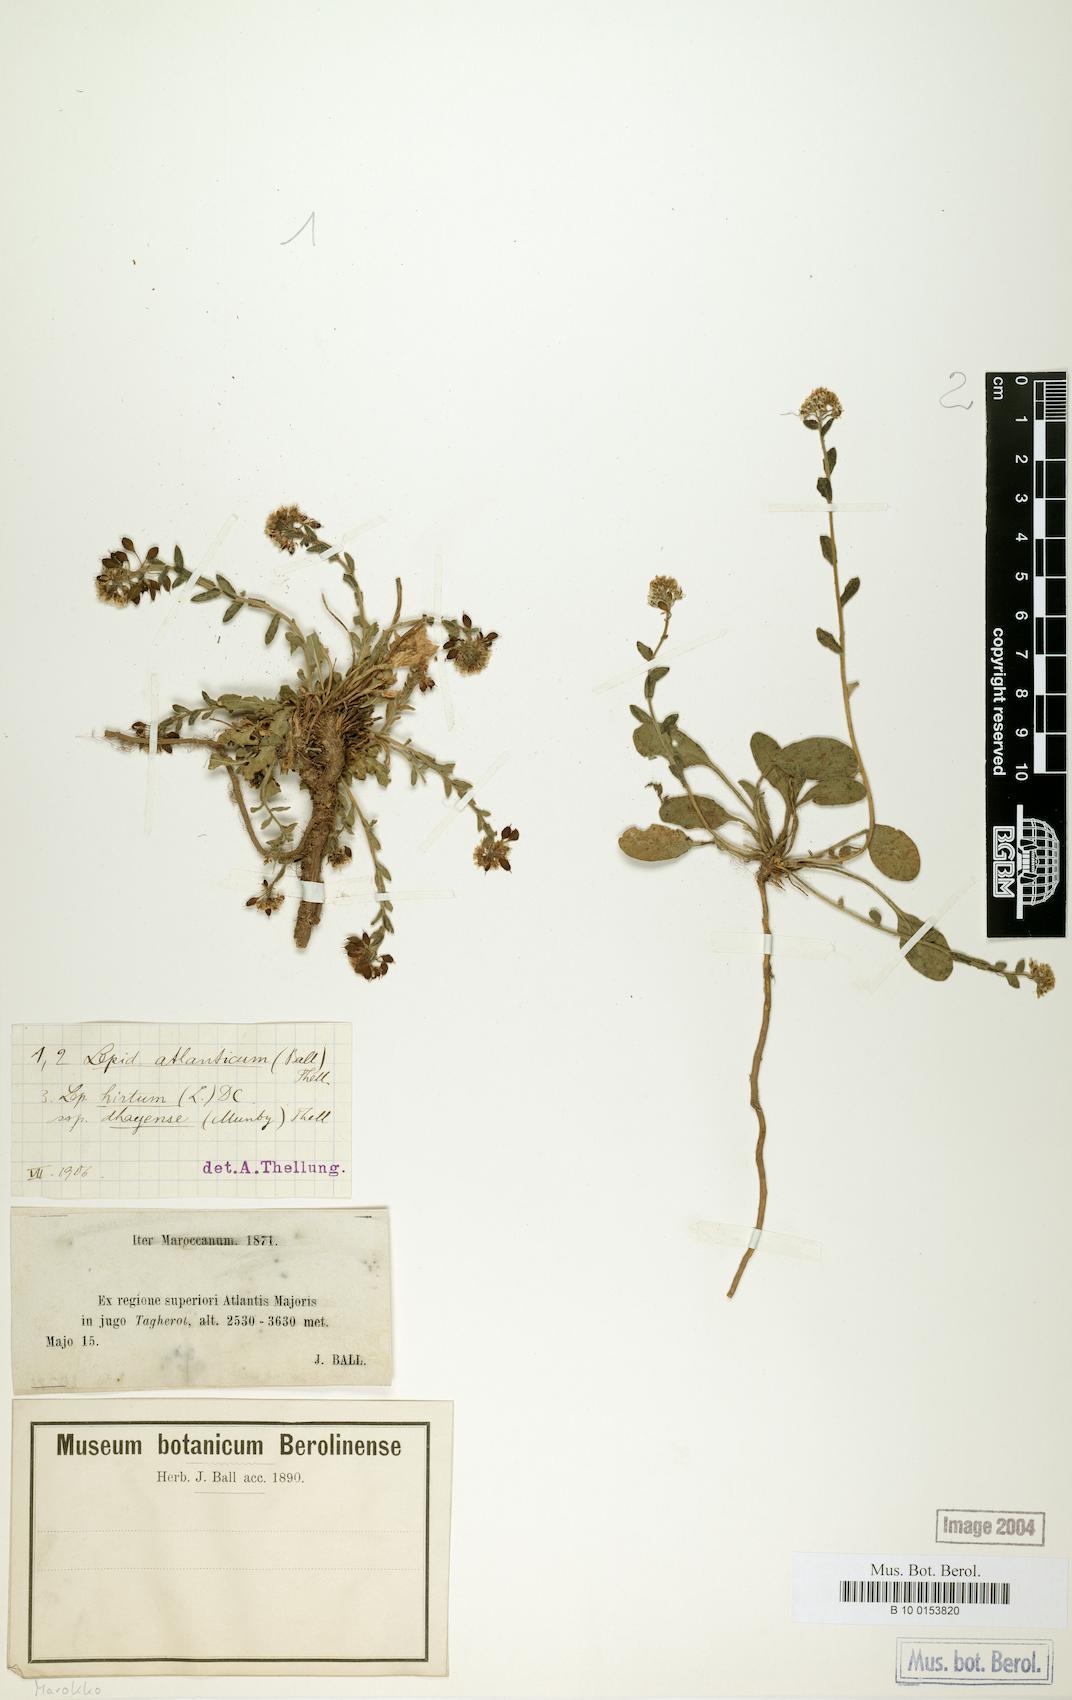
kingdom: Plantae
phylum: Tracheophyta
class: Magnoliopsida
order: Brassicales
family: Brassicaceae
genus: Lepidium
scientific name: Lepidium hirtum
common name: Mediterranean pepperweed
